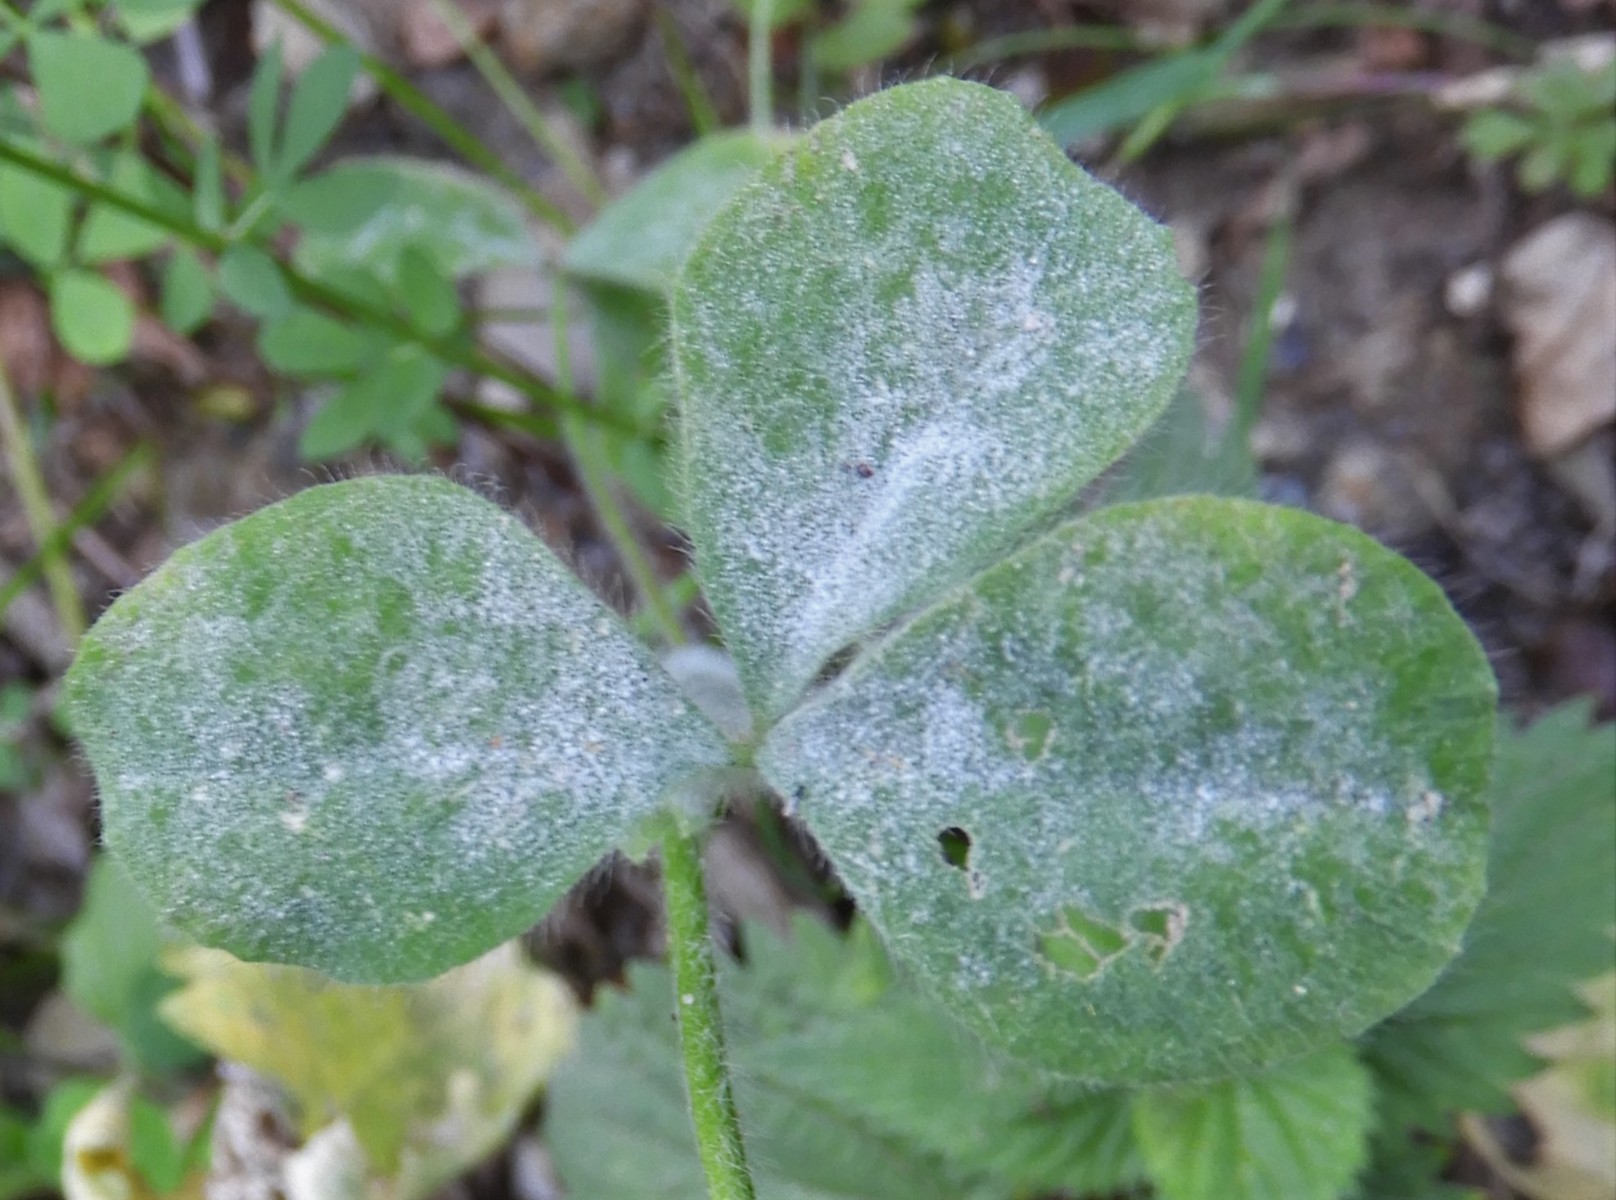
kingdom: Fungi
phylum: Ascomycota
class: Leotiomycetes
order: Helotiales
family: Erysiphaceae
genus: Erysiphe
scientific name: Erysiphe trifoliorum
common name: kløver-meldug
